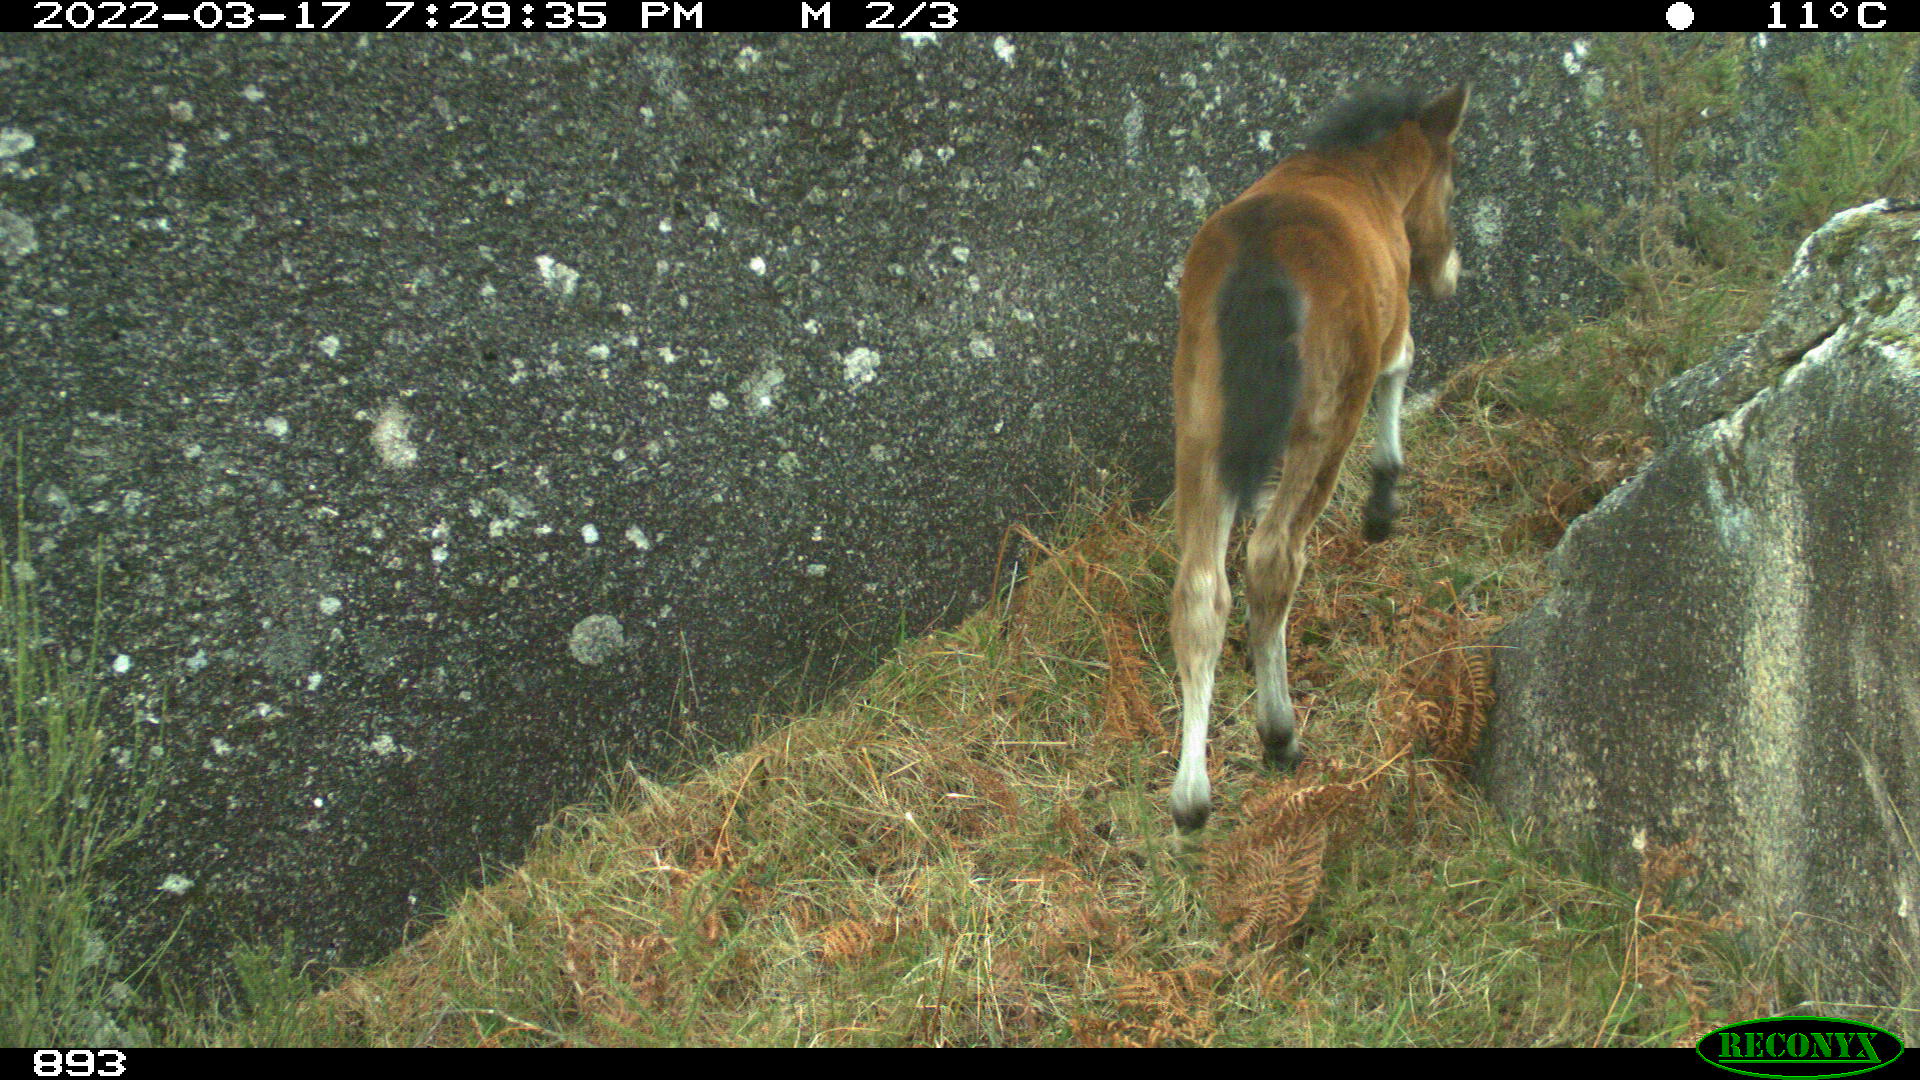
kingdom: Animalia
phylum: Chordata
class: Mammalia
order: Perissodactyla
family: Equidae
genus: Equus
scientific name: Equus caballus
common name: Horse
